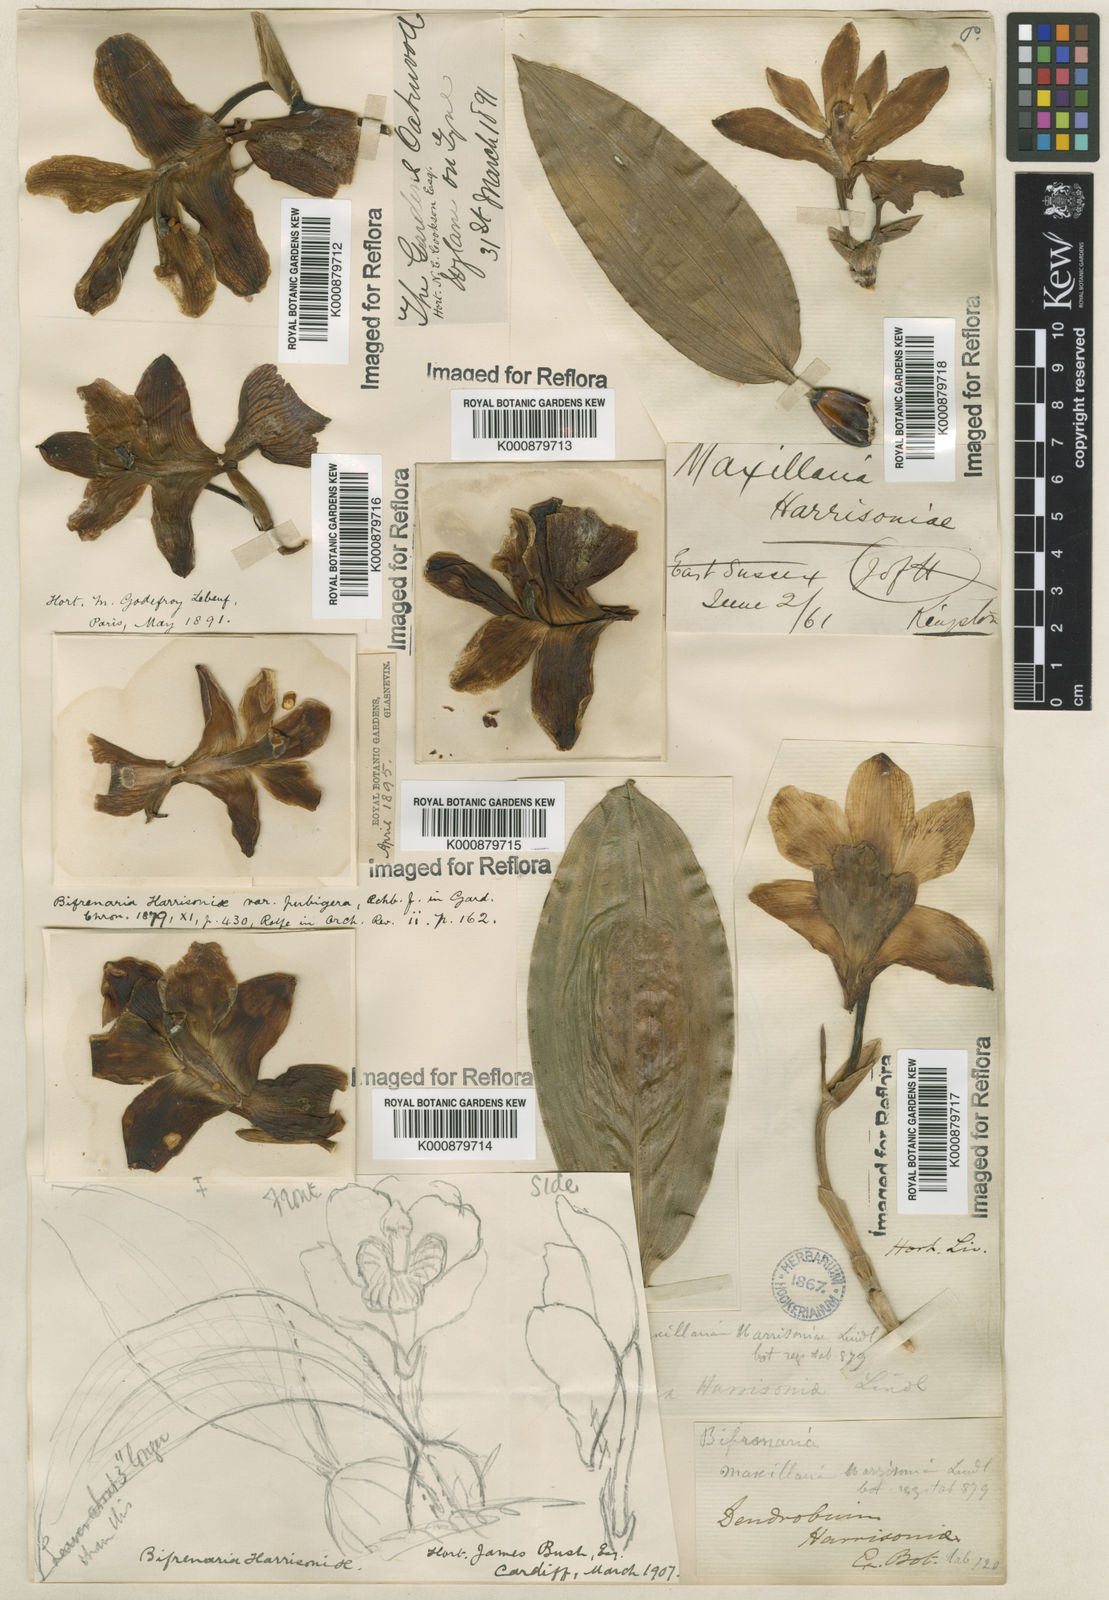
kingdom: Plantae
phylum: Tracheophyta
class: Liliopsida
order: Asparagales
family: Orchidaceae
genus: Bifrenaria
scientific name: Bifrenaria harrisoniae
